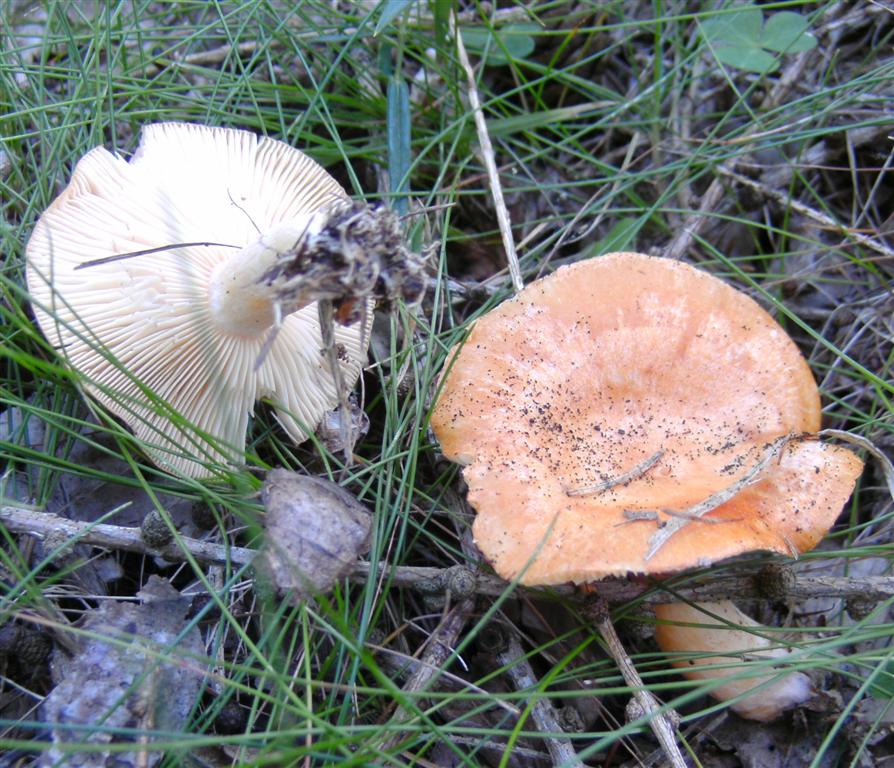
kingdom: Fungi
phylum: Basidiomycota
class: Agaricomycetes
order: Russulales
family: Russulaceae
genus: Lactarius
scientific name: Lactarius porninsis
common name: lærke-mælkehat
